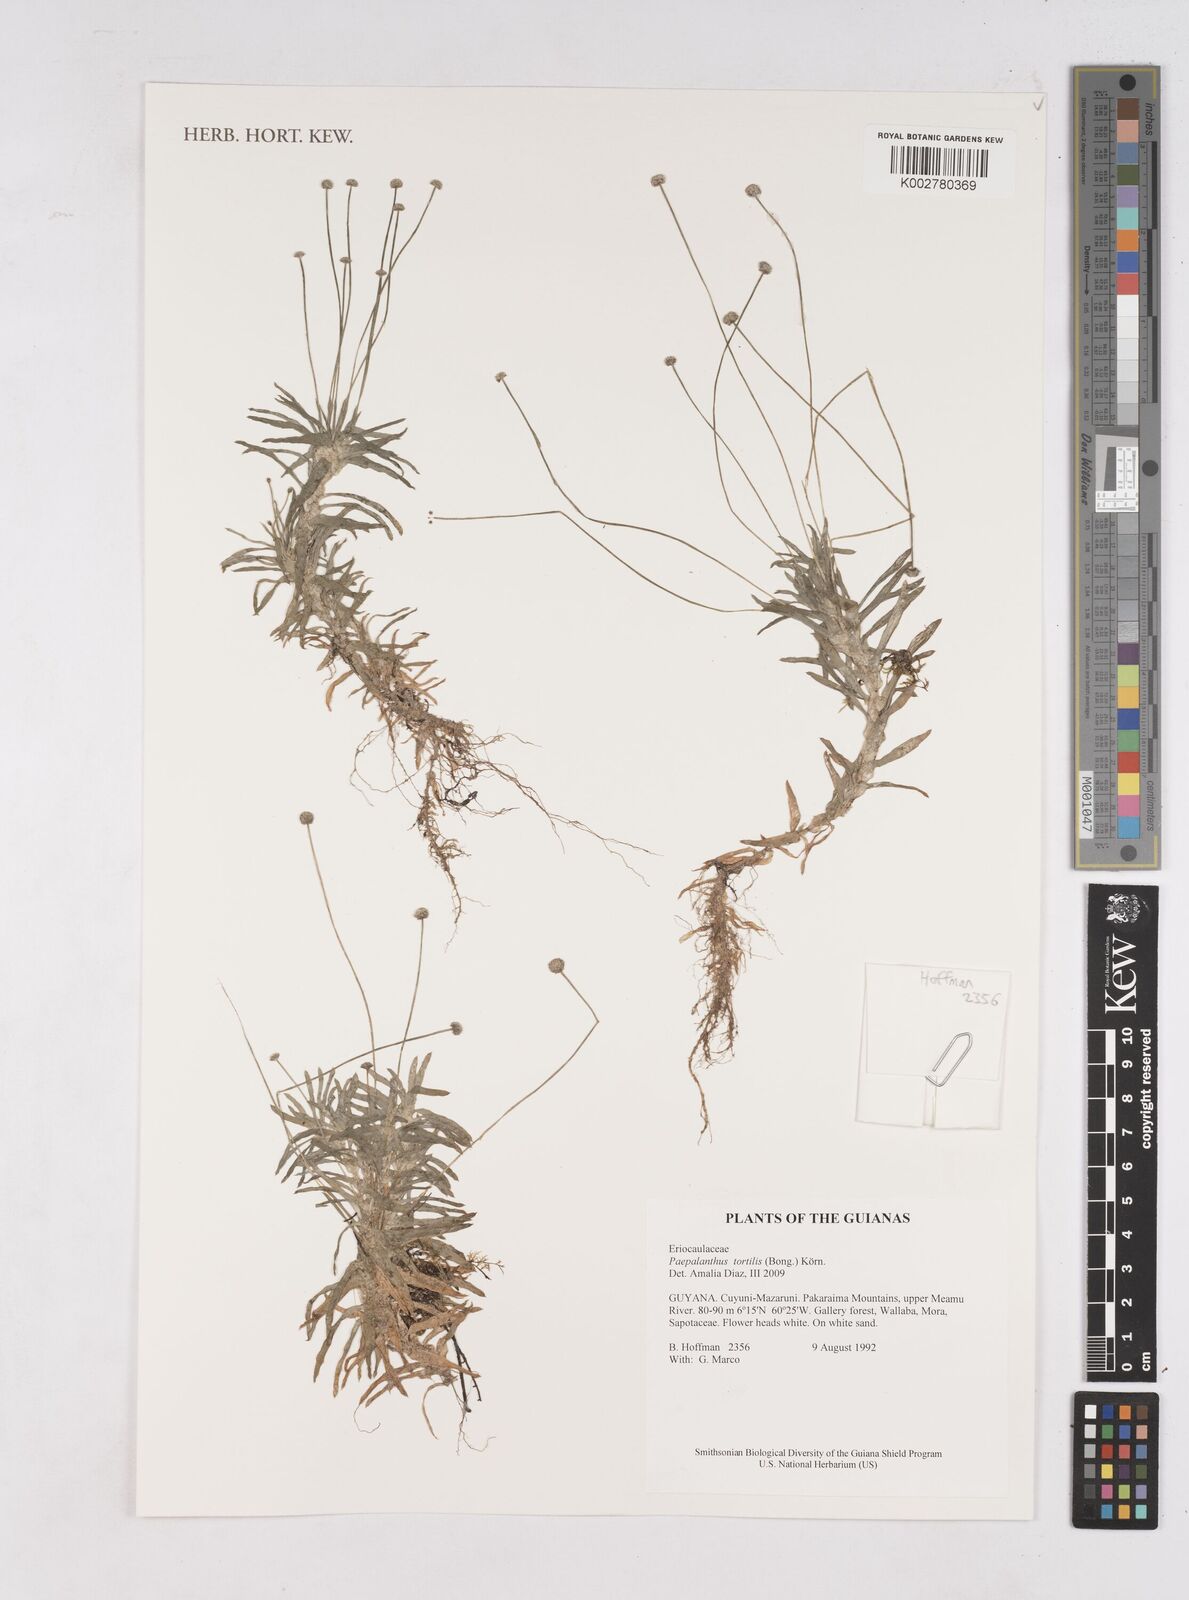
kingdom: Plantae
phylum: Tracheophyta
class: Liliopsida
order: Poales
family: Eriocaulaceae
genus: Paepalanthus
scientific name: Paepalanthus tortilis
